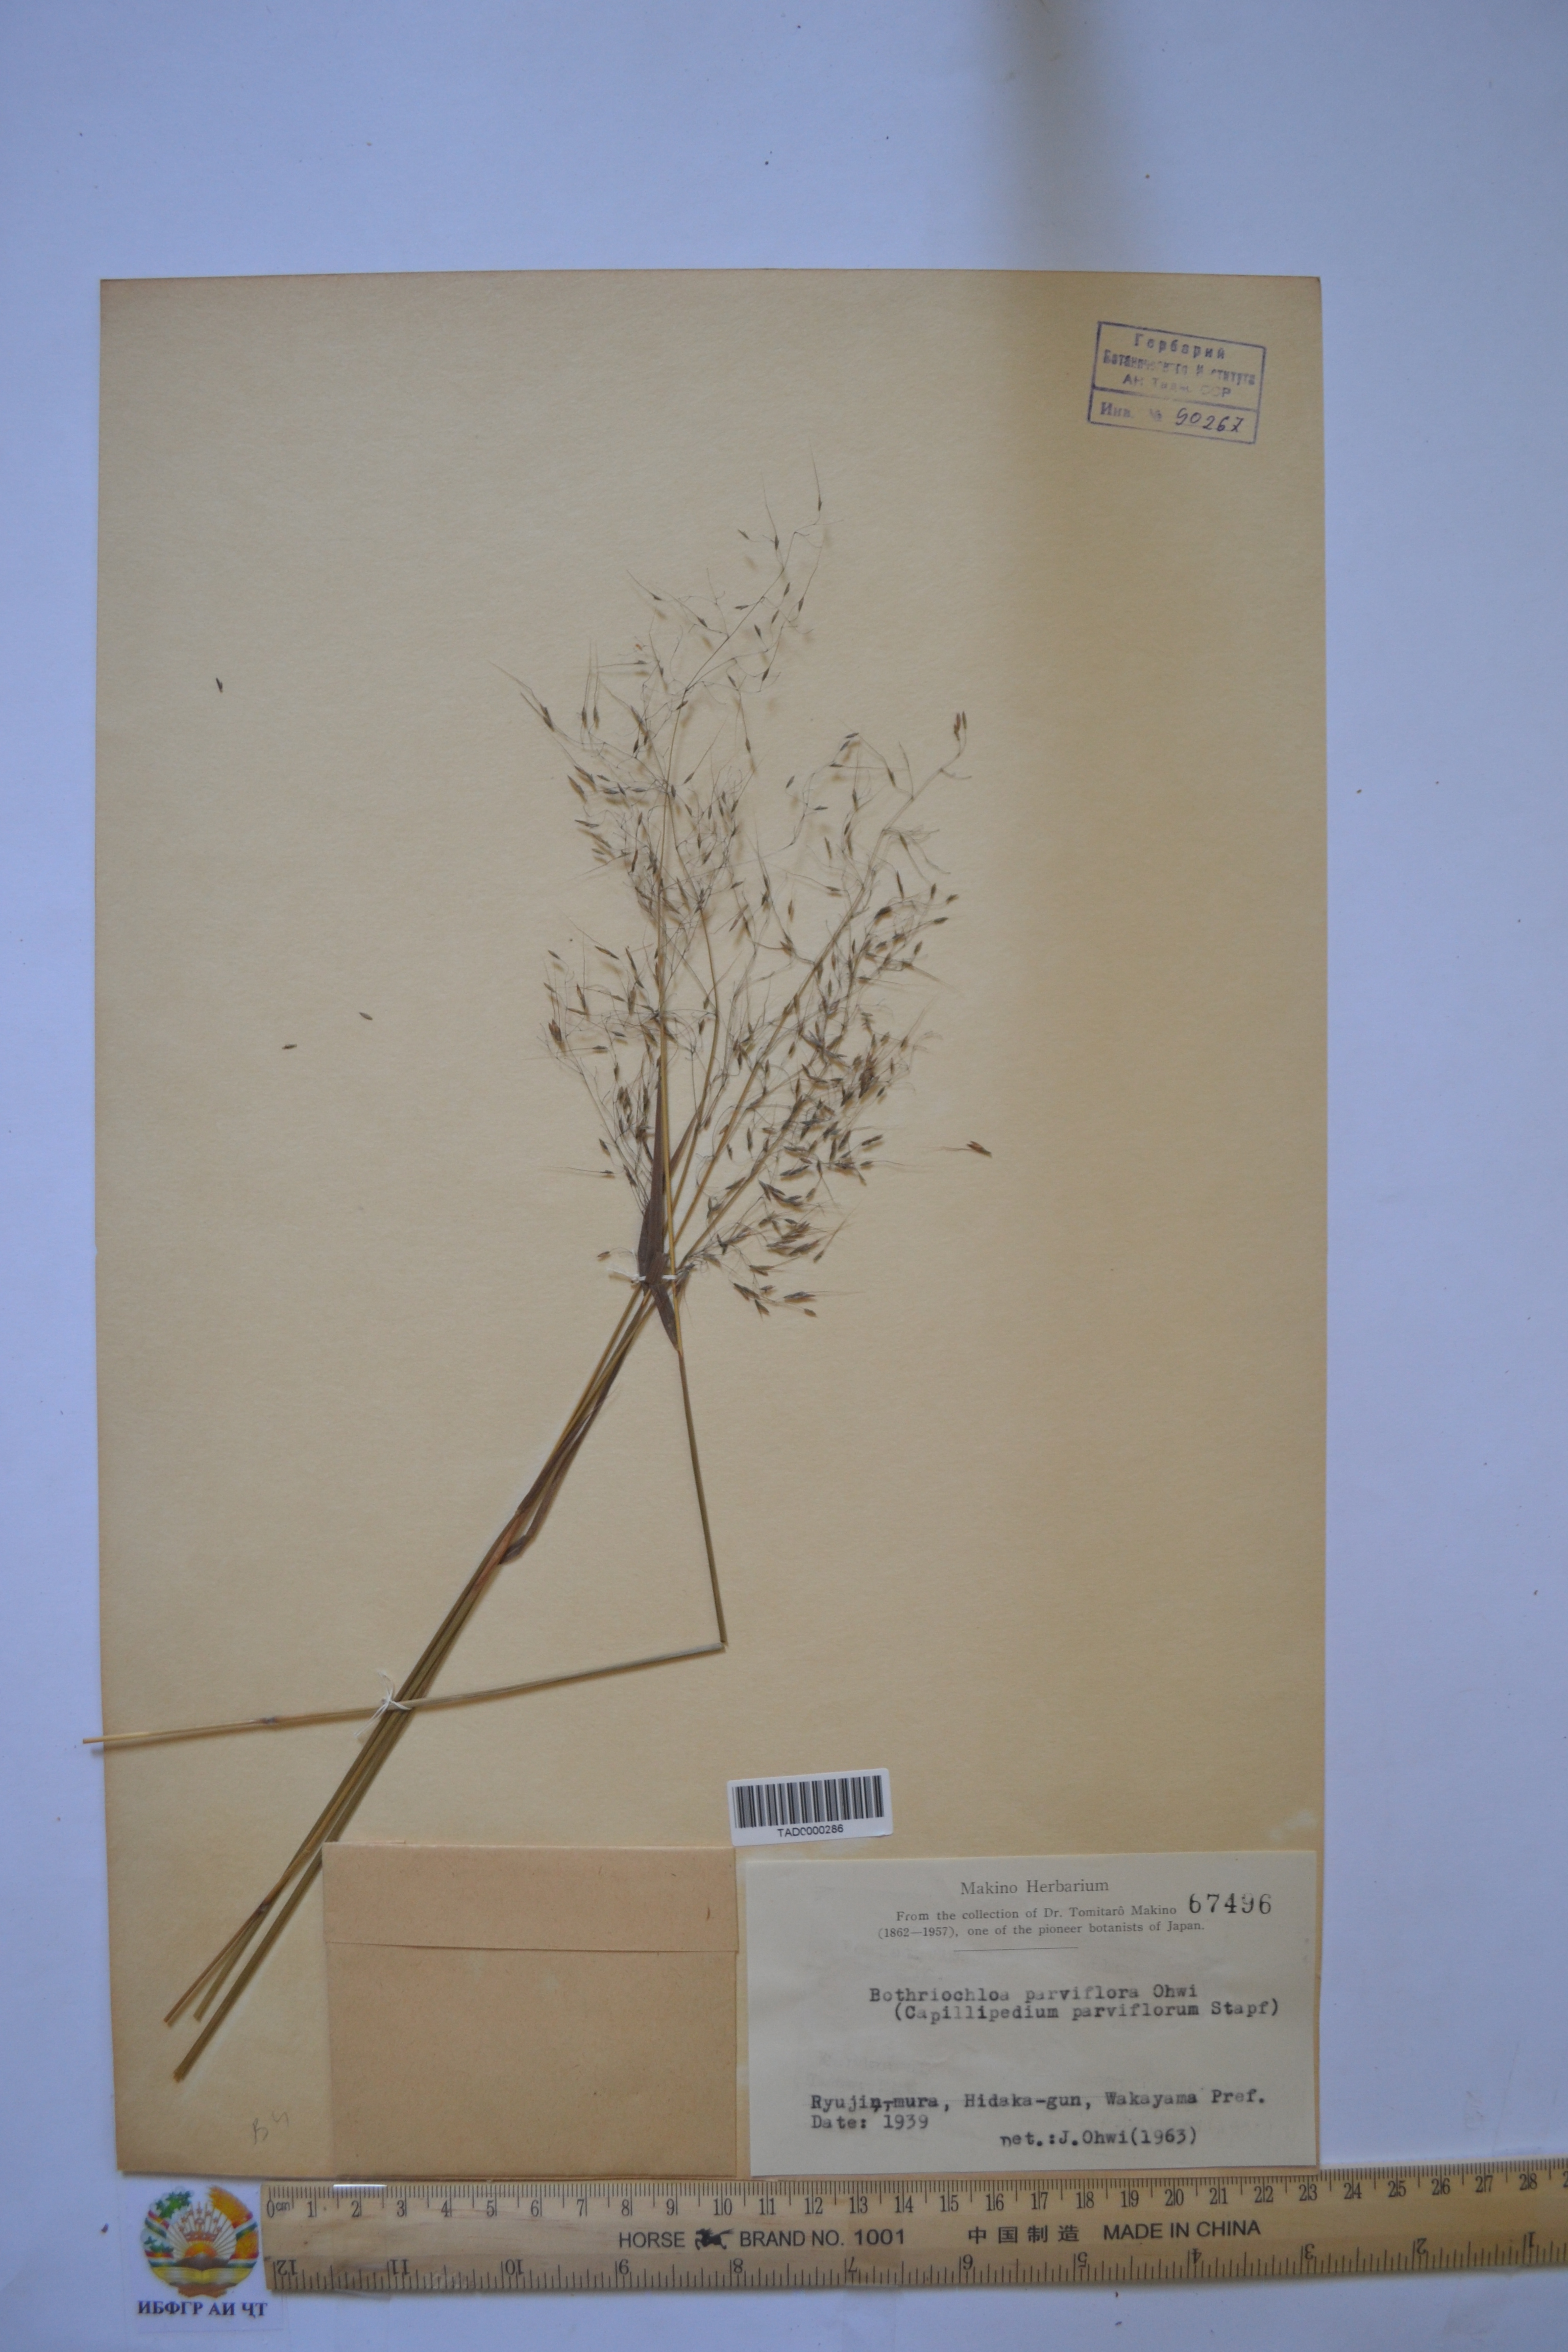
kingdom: Plantae
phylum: Tracheophyta
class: Liliopsida
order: Poales
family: Poaceae
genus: Capillipedium
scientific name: Capillipedium parviflorum
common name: Golden-beard
